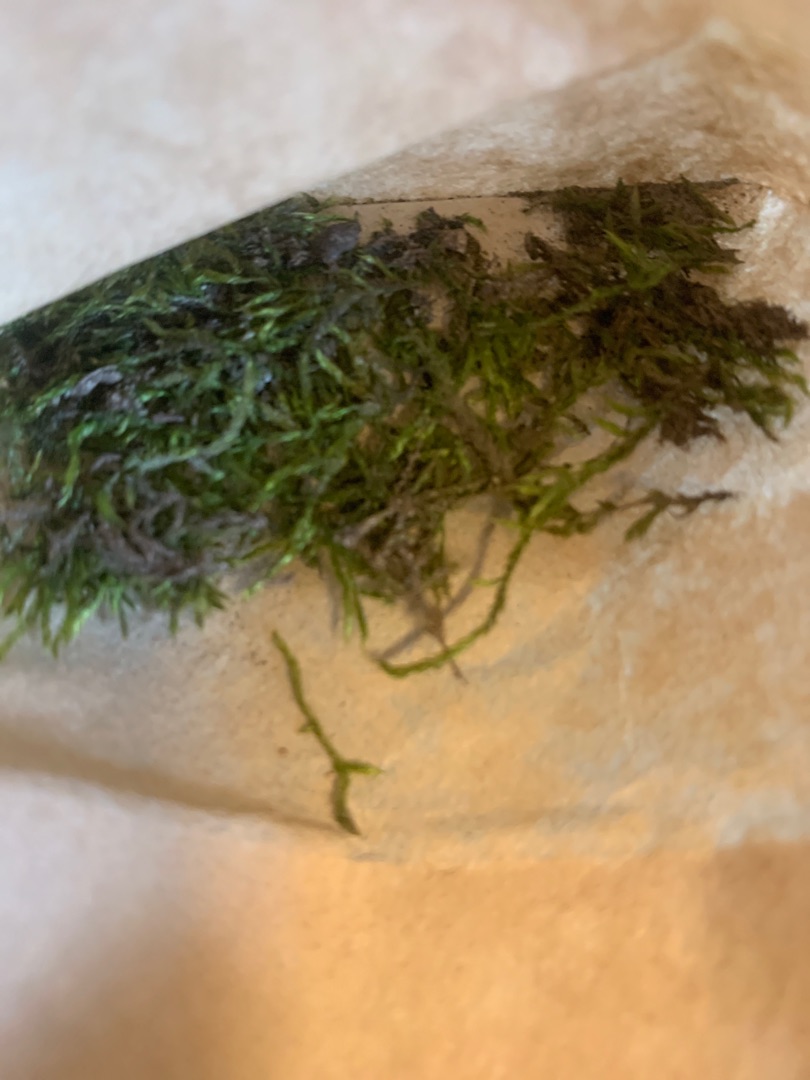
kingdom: Plantae
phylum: Bryophyta
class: Bryopsida
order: Hypnales
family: Hypnaceae
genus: Hypnum
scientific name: Hypnum
